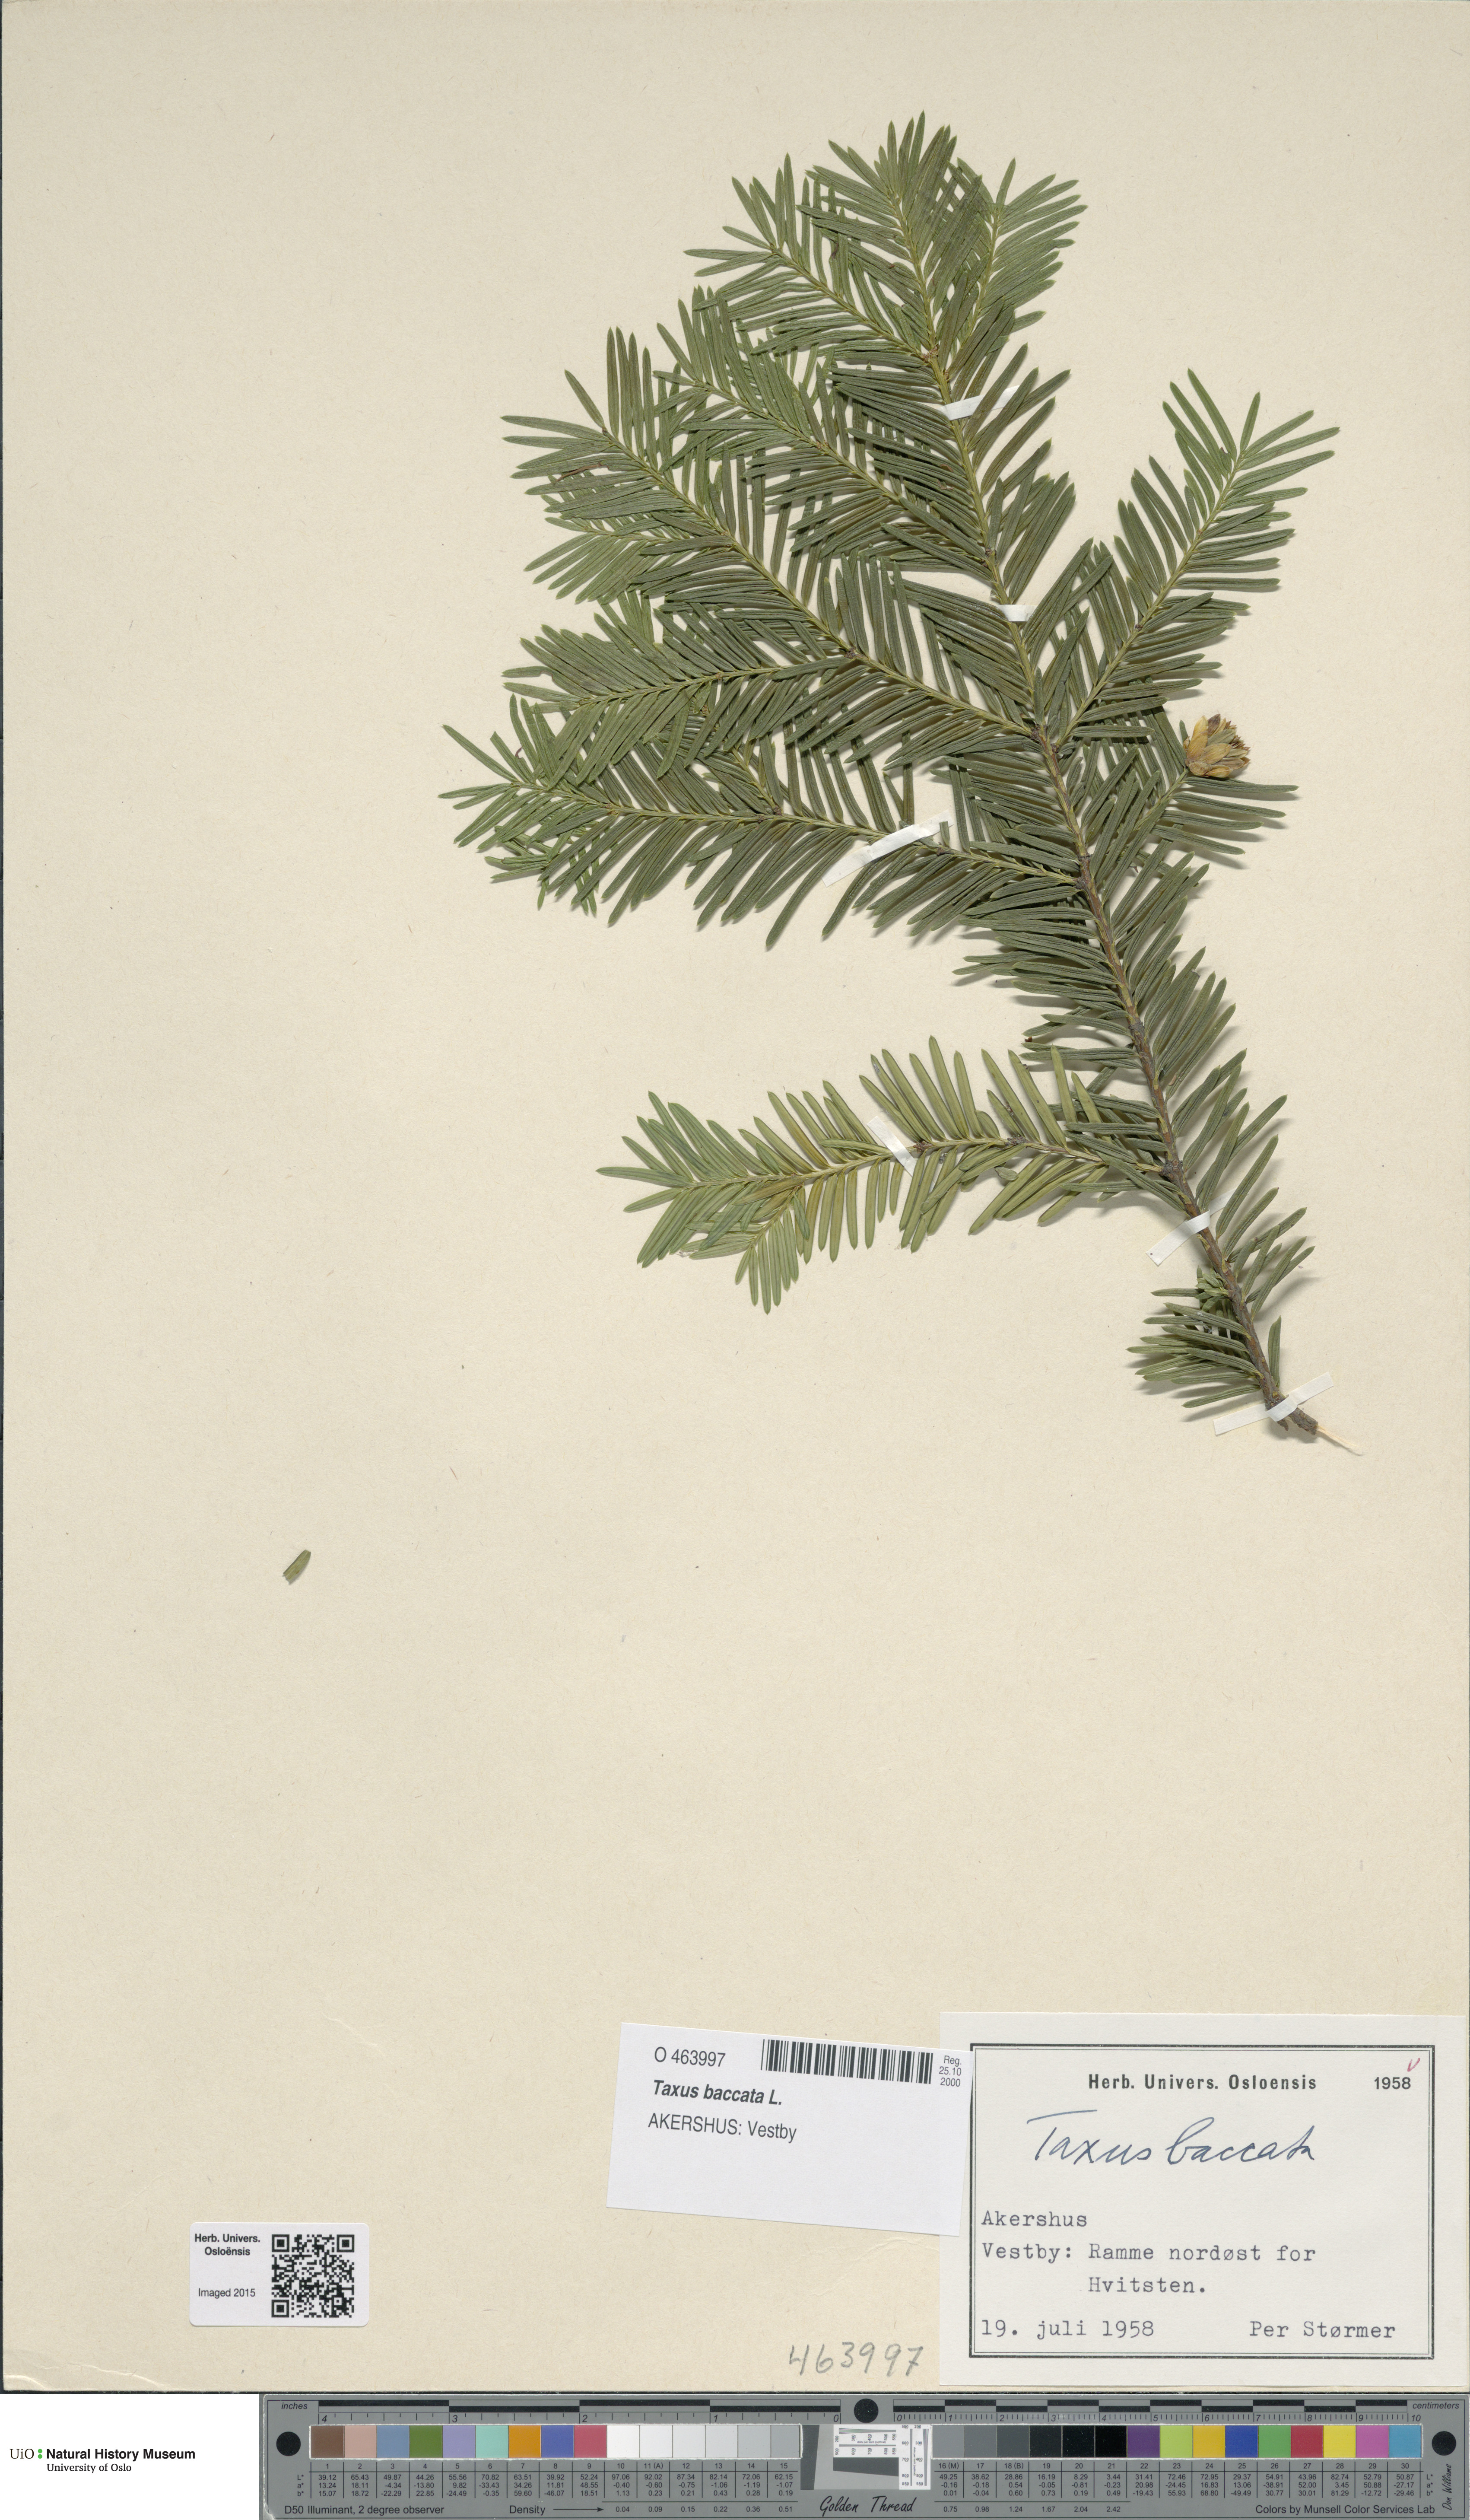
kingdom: Plantae
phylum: Tracheophyta
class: Pinopsida
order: Pinales
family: Taxaceae
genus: Taxus
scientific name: Taxus baccata
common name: Yew
